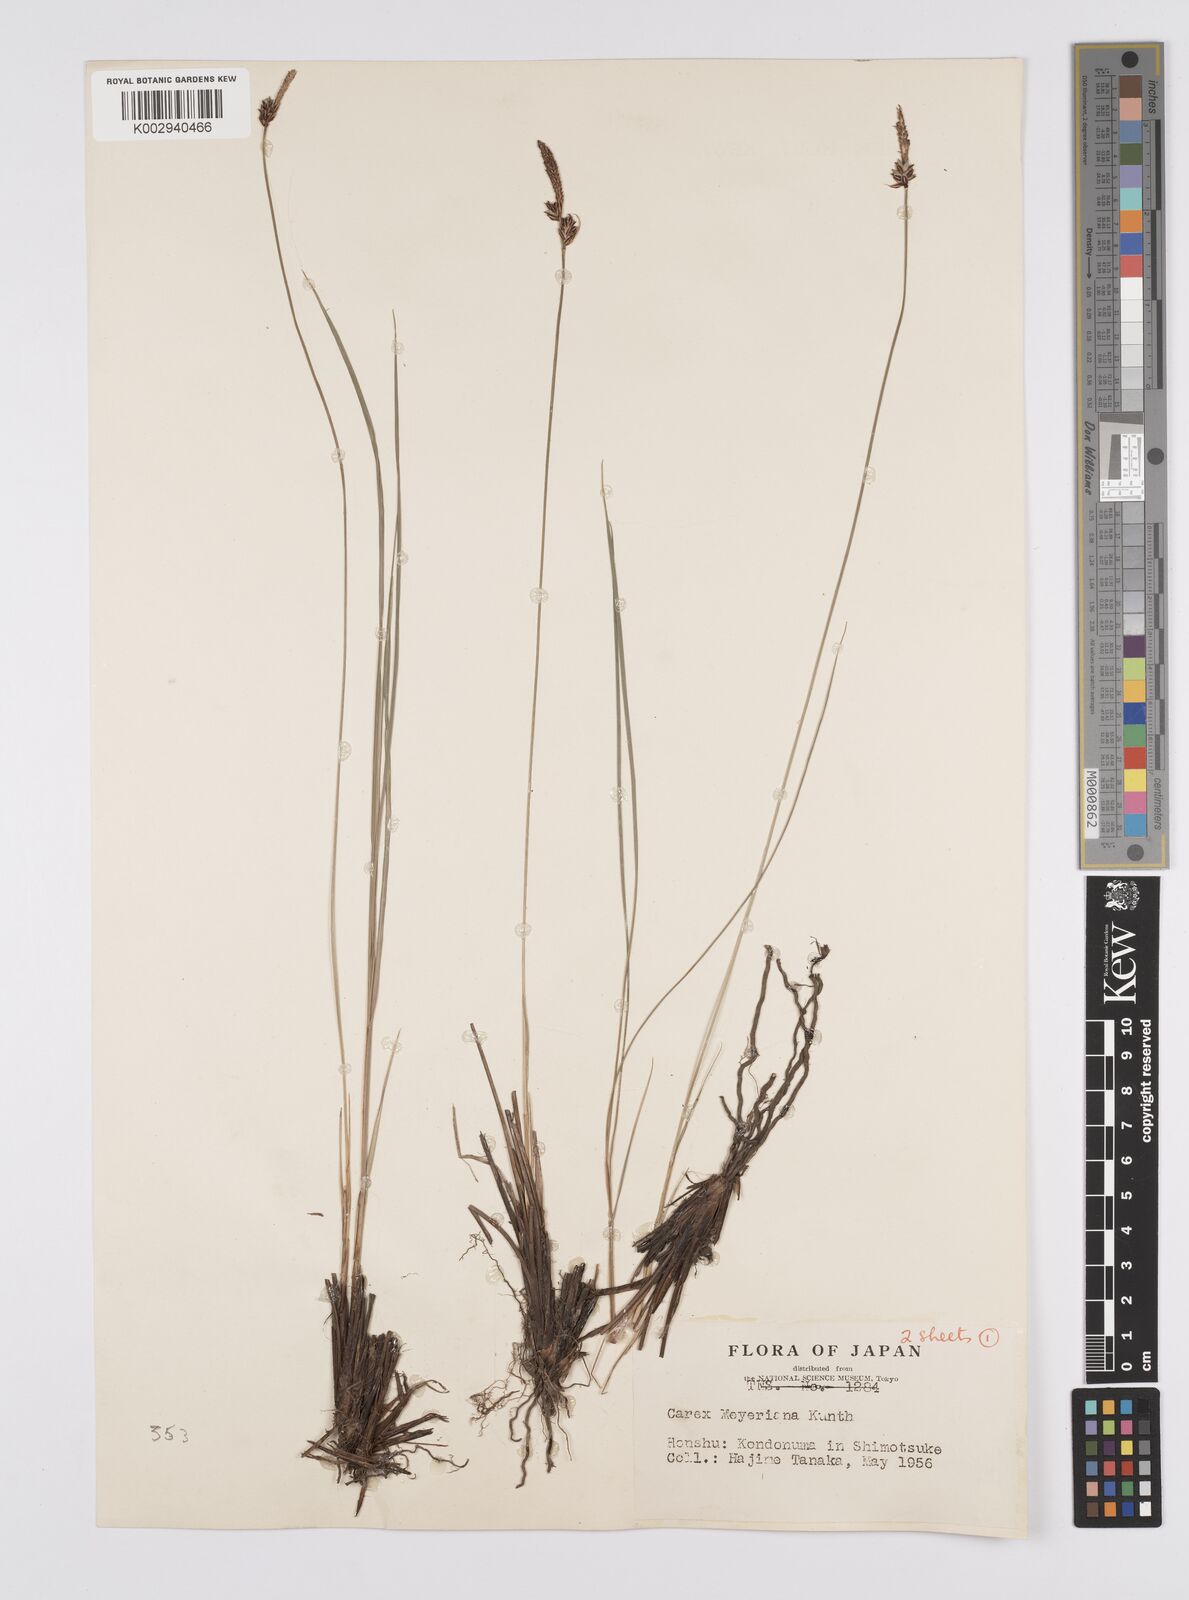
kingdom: Plantae
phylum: Tracheophyta
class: Liliopsida
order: Poales
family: Cyperaceae
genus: Carex
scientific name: Carex meyeriana
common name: Wula sedge
